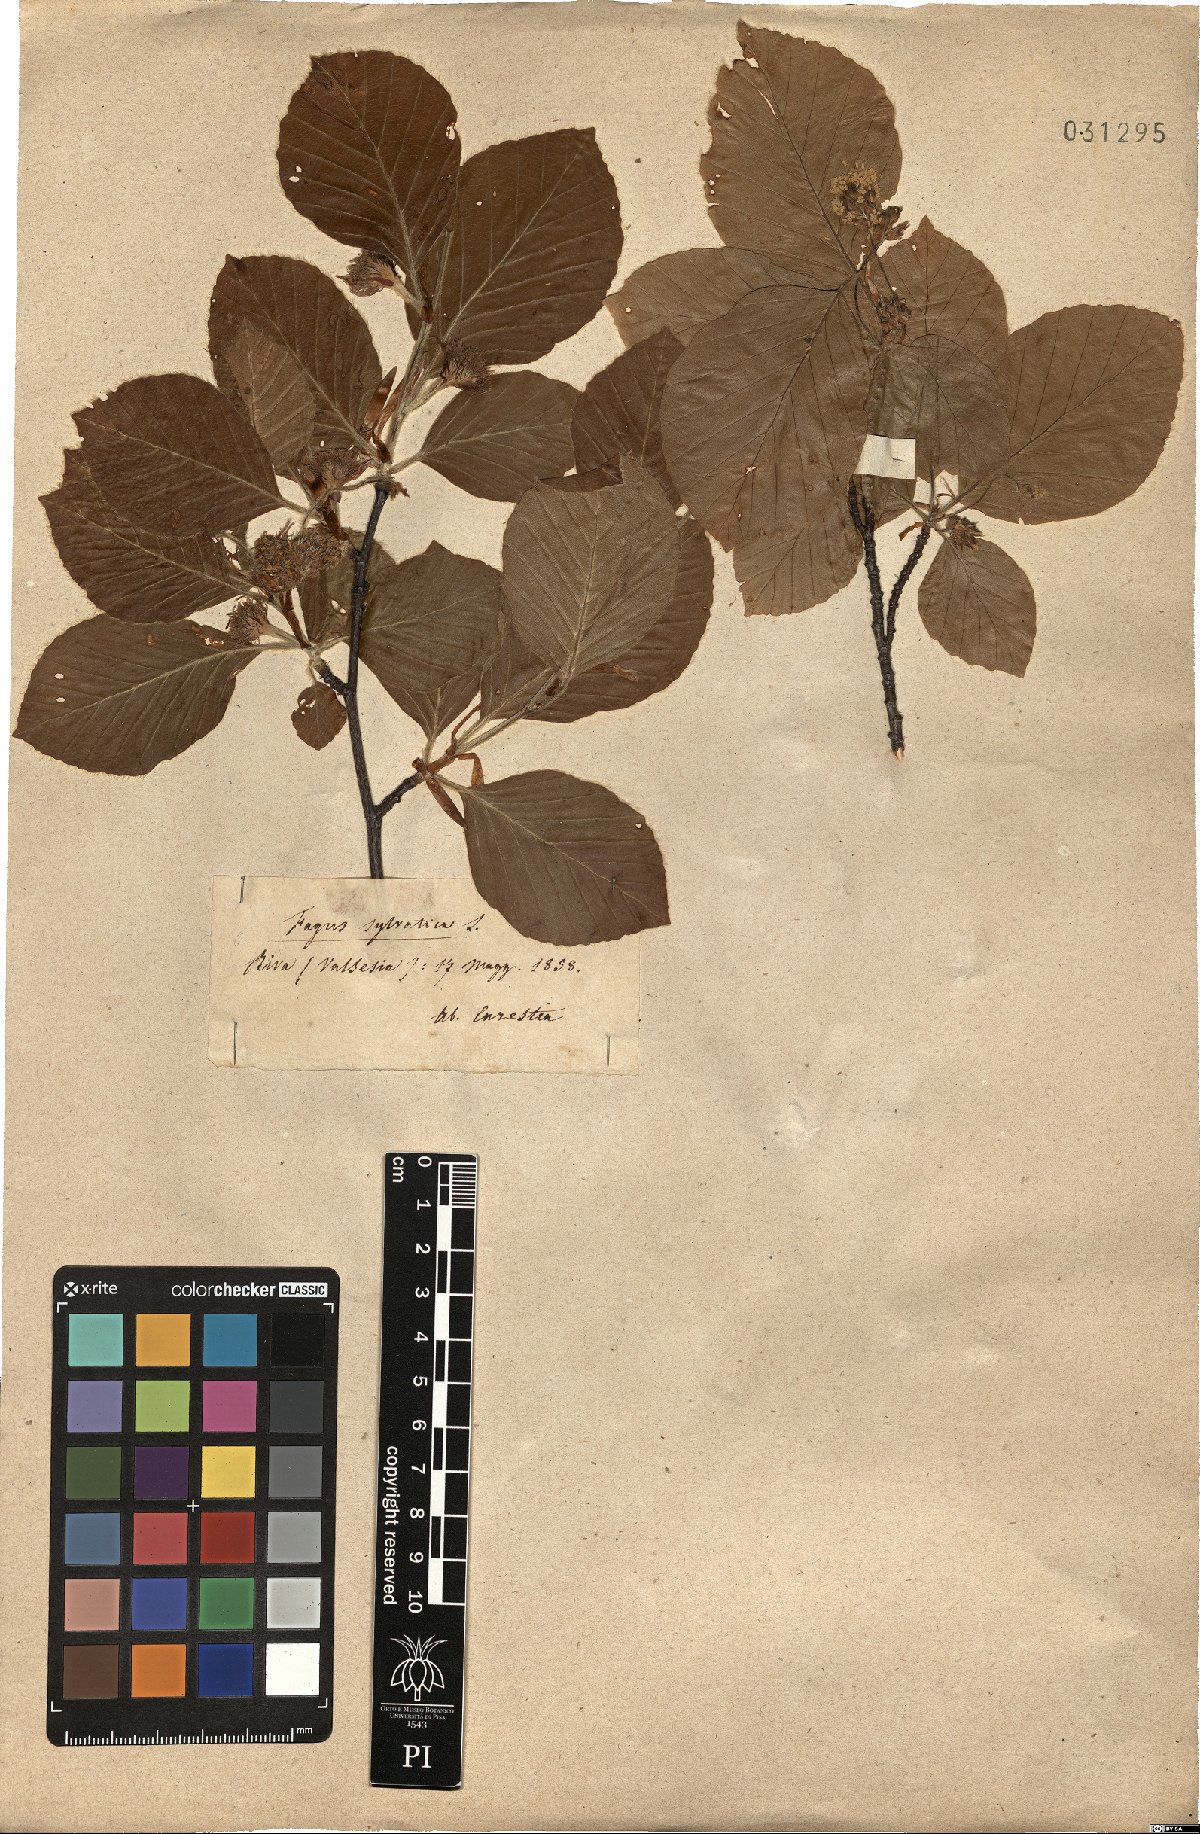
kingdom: Plantae
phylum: Tracheophyta
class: Magnoliopsida
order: Fagales
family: Fagaceae
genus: Fagus
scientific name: Fagus sylvatica
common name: Beech
